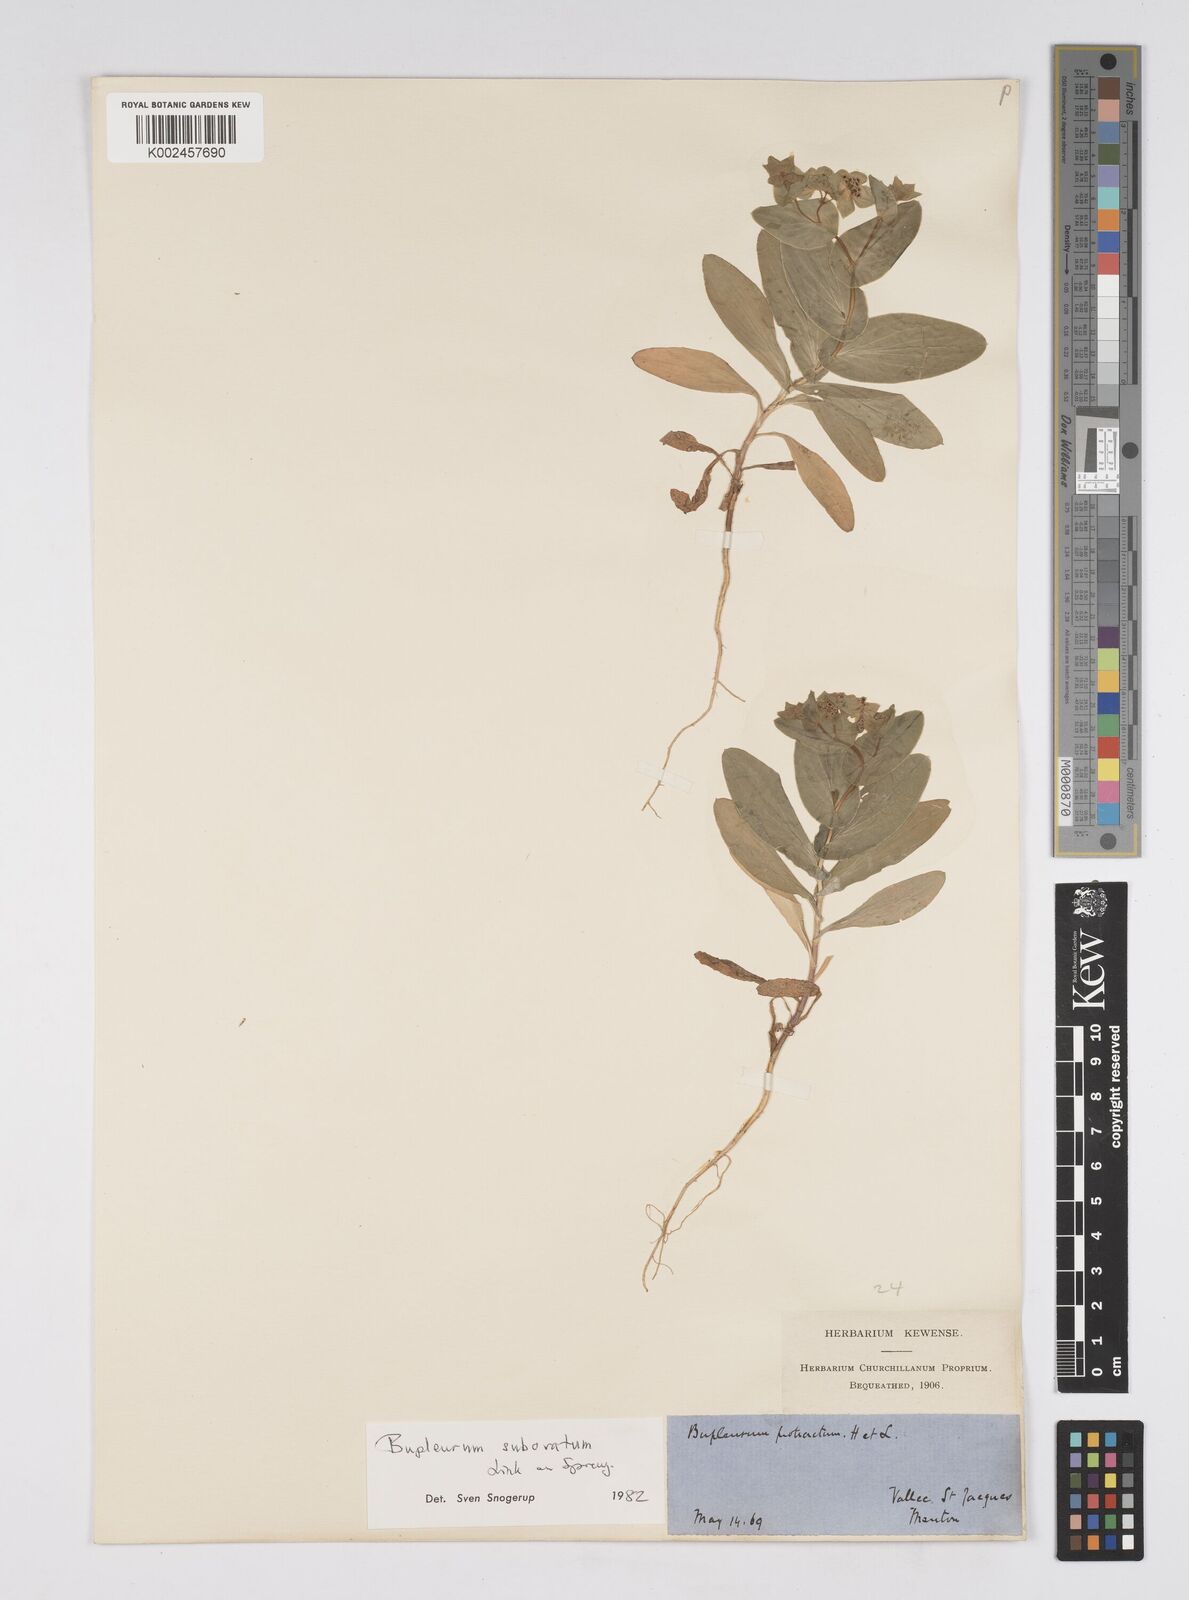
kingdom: Plantae
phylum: Tracheophyta
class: Magnoliopsida
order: Apiales
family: Apiaceae
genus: Bupleurum
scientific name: Bupleurum lancifolium
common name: False thorow-wax
